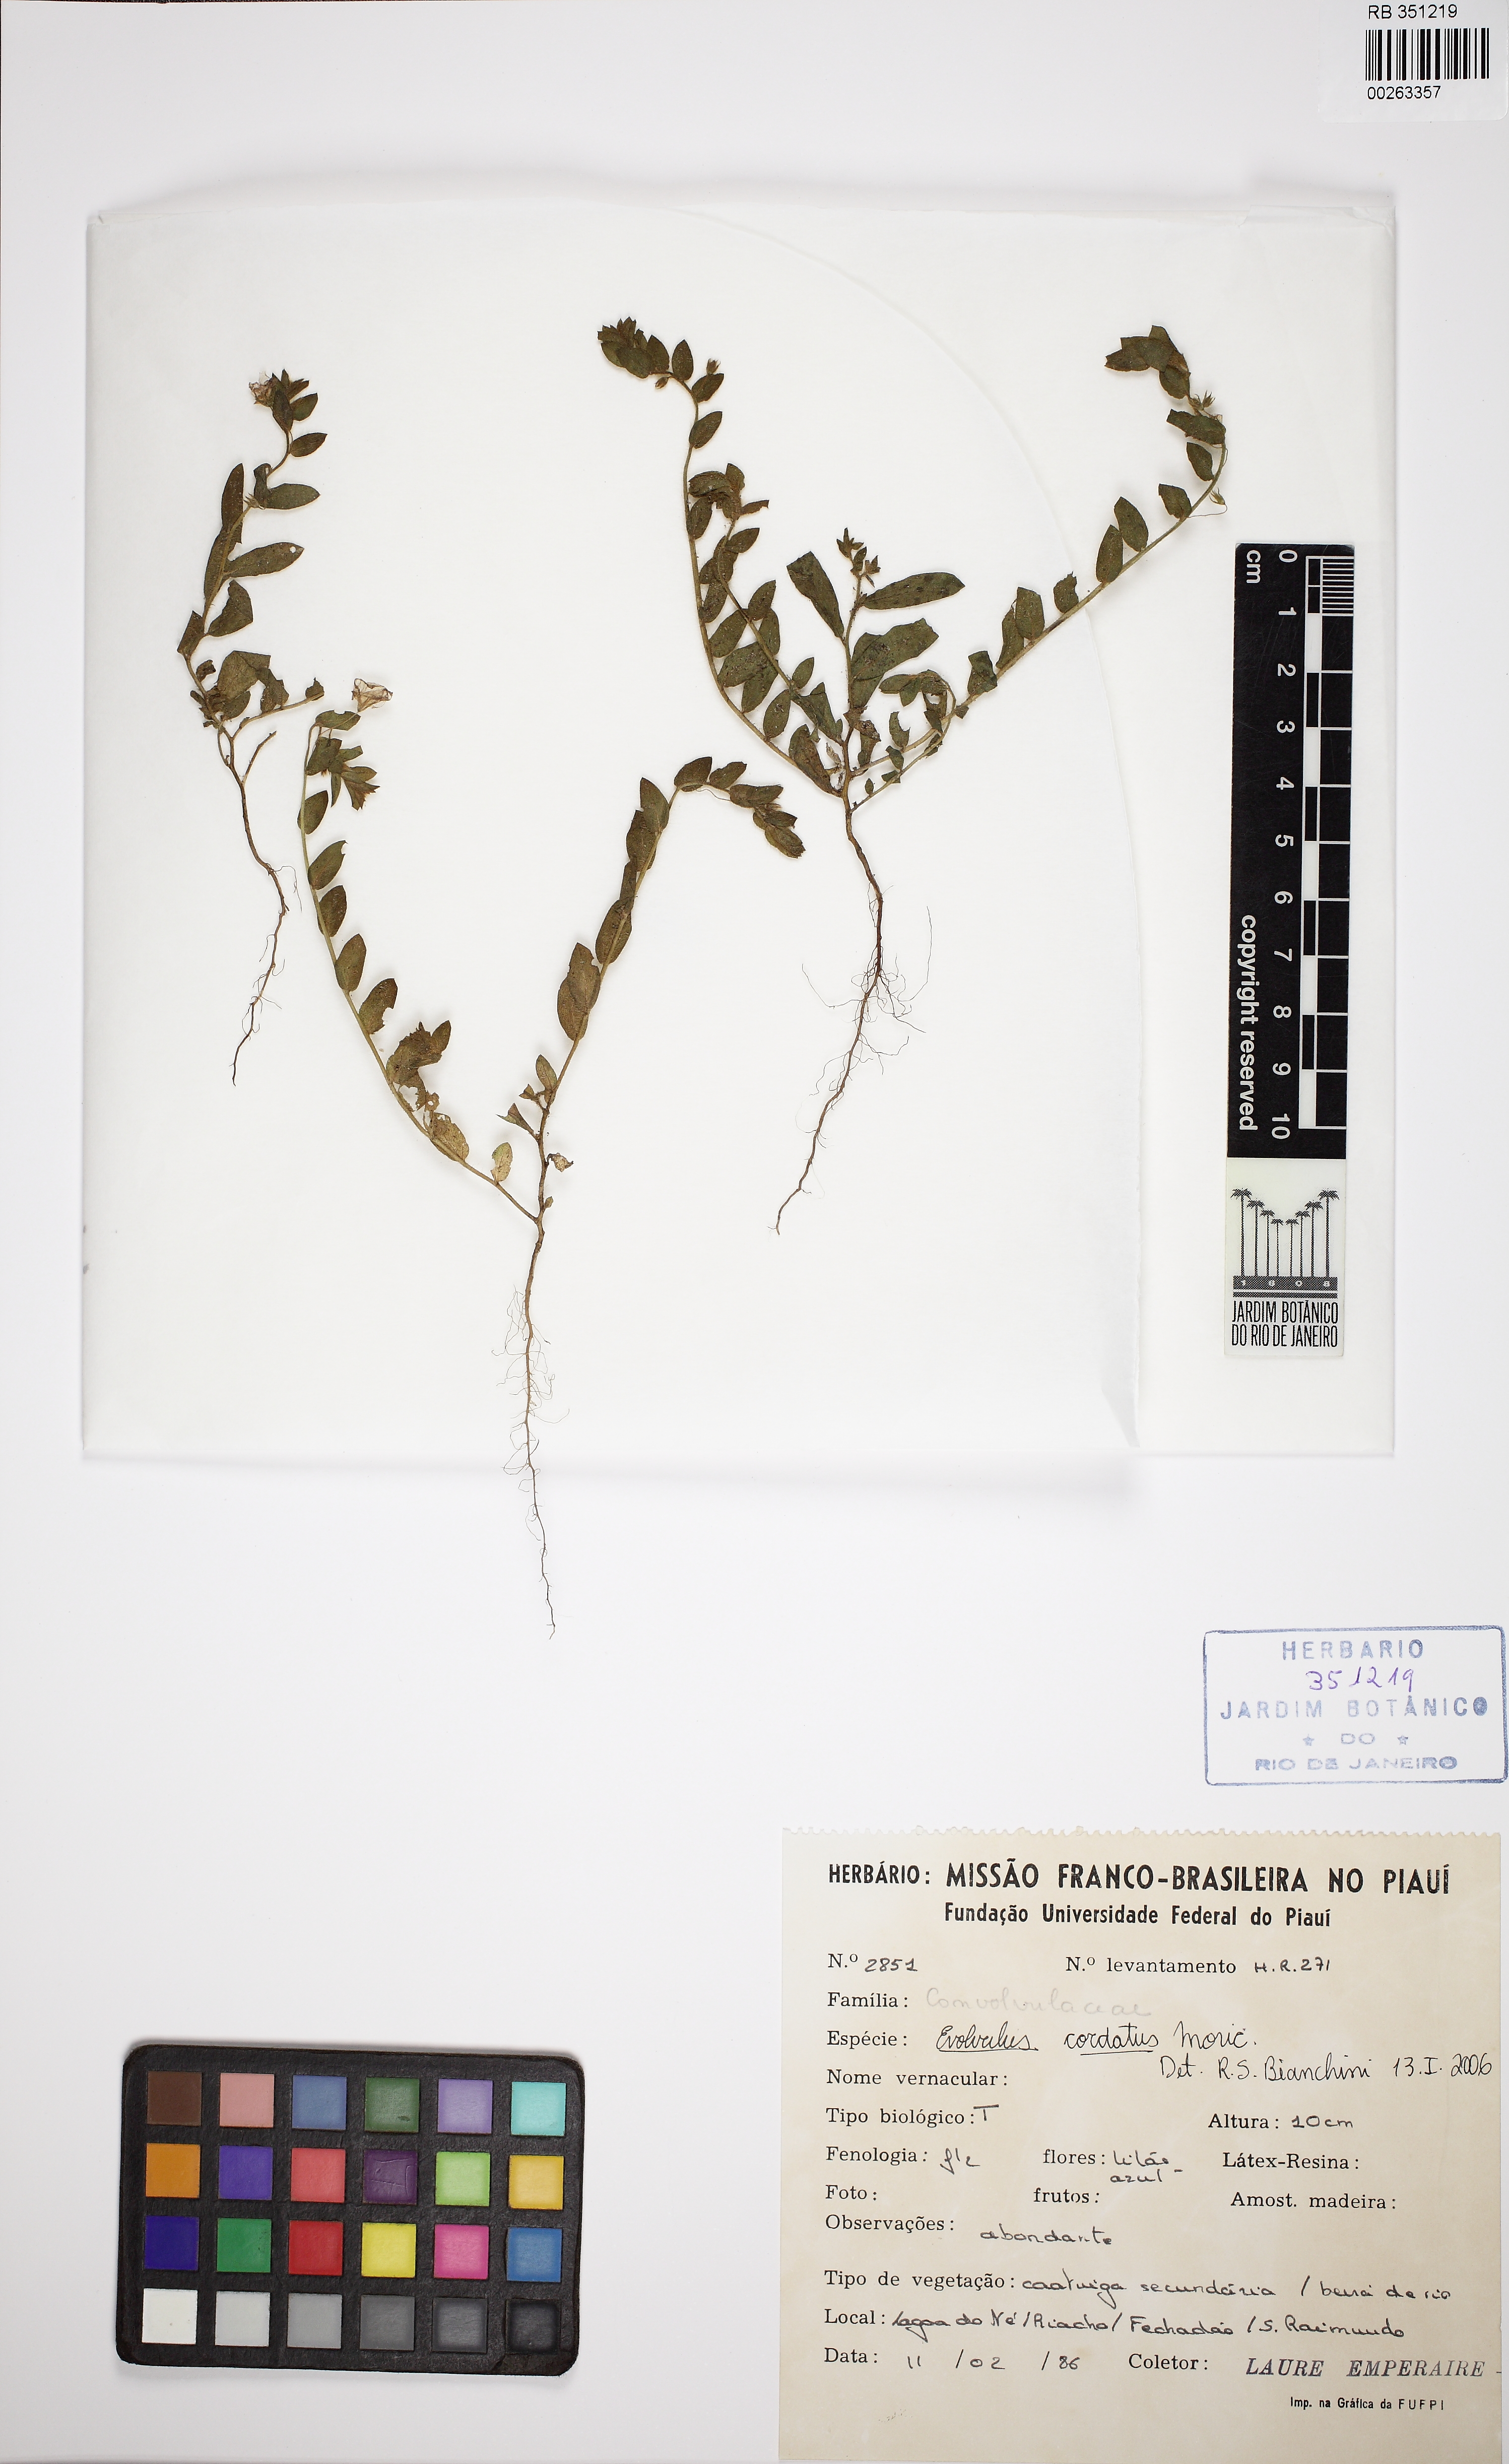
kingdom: Plantae
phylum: Tracheophyta
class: Magnoliopsida
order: Solanales
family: Convolvulaceae
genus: Evolvulus
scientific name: Evolvulus cordatus
